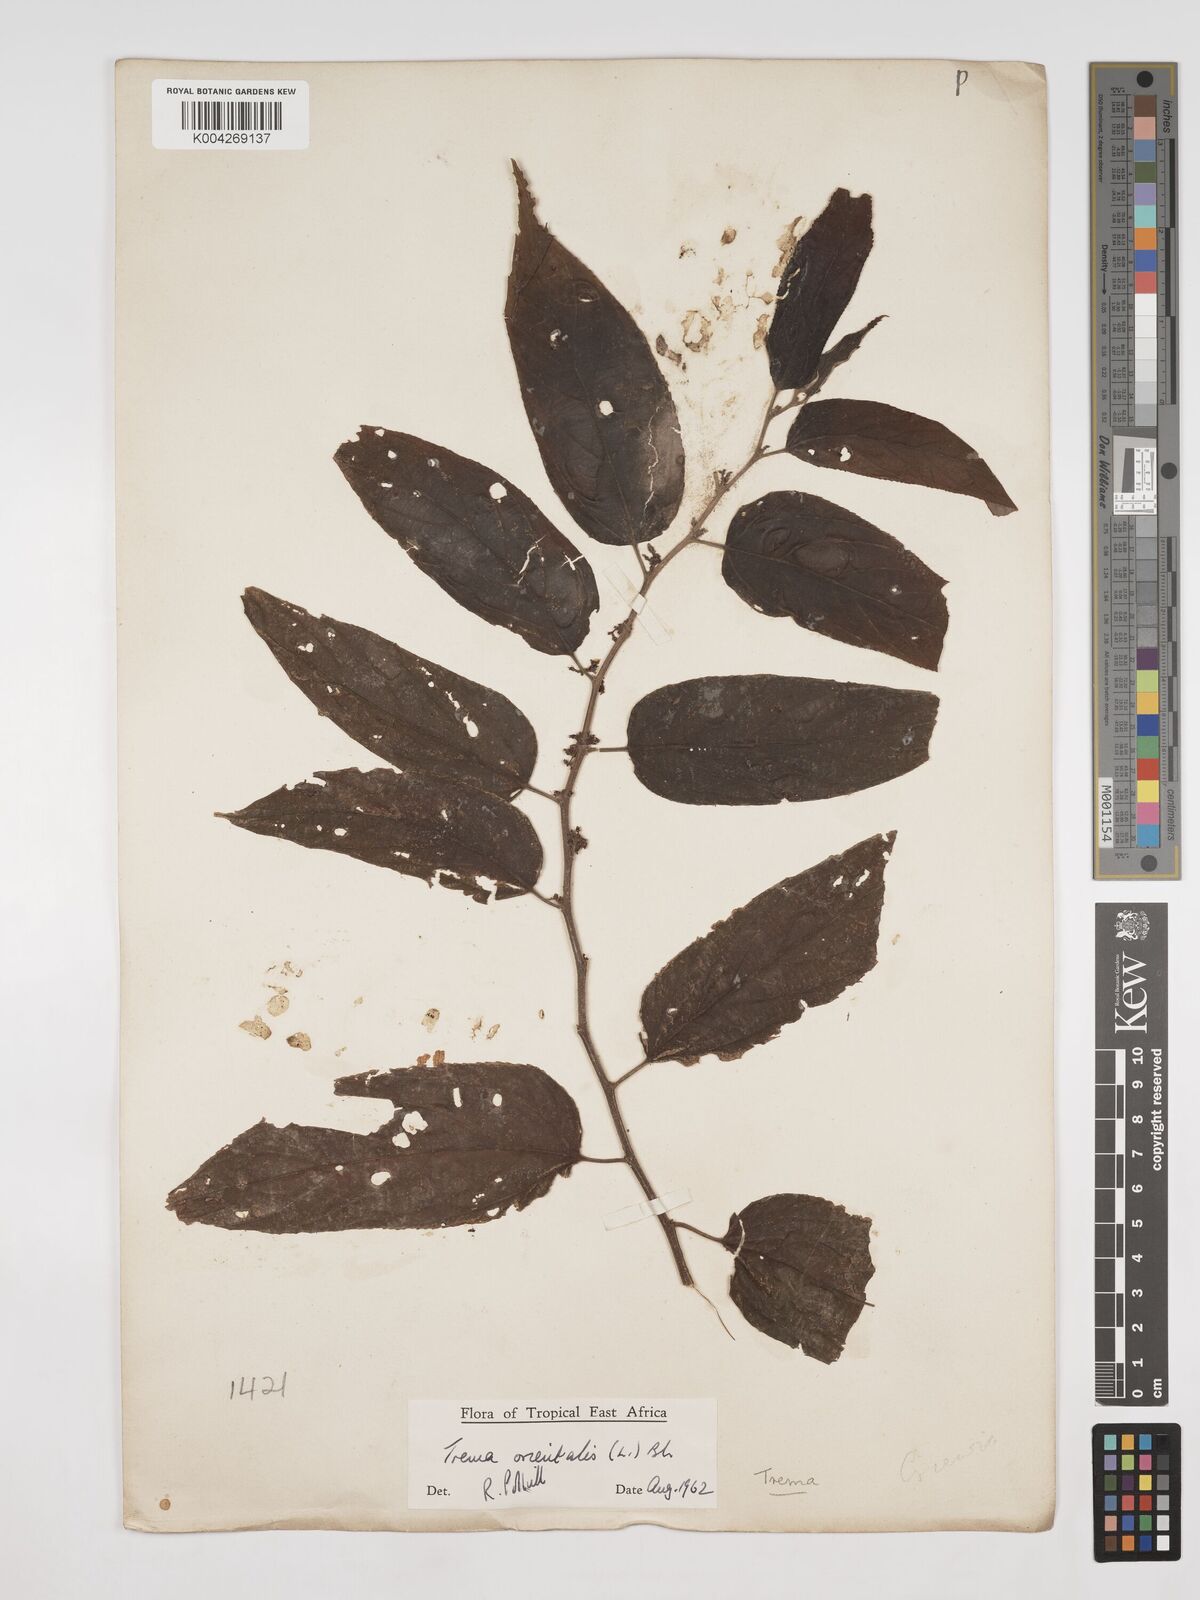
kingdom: Plantae
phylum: Tracheophyta
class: Magnoliopsida
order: Rosales
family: Cannabaceae
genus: Trema
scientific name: Trema orientale
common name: Indian charcoal tree
